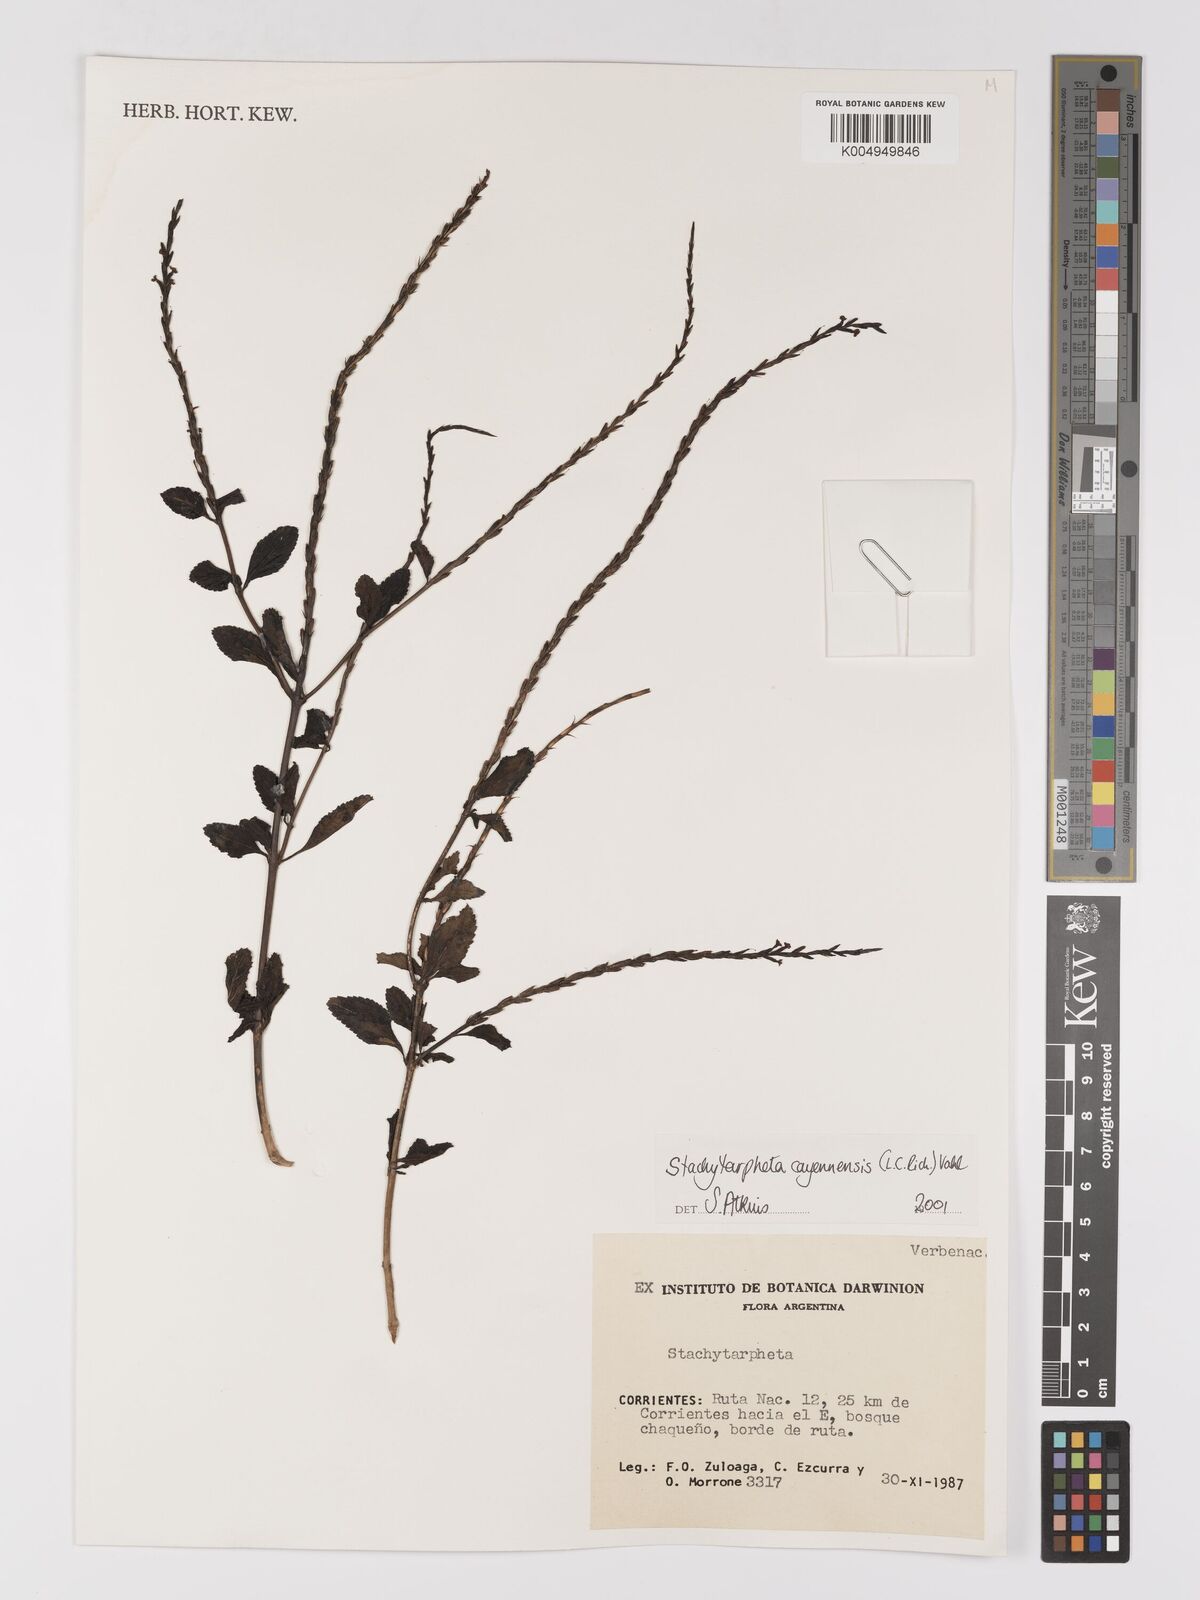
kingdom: Plantae
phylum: Tracheophyta
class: Magnoliopsida
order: Lamiales
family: Verbenaceae
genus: Stachytarpheta
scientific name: Stachytarpheta cayennensis
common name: Cayenne porterweed
